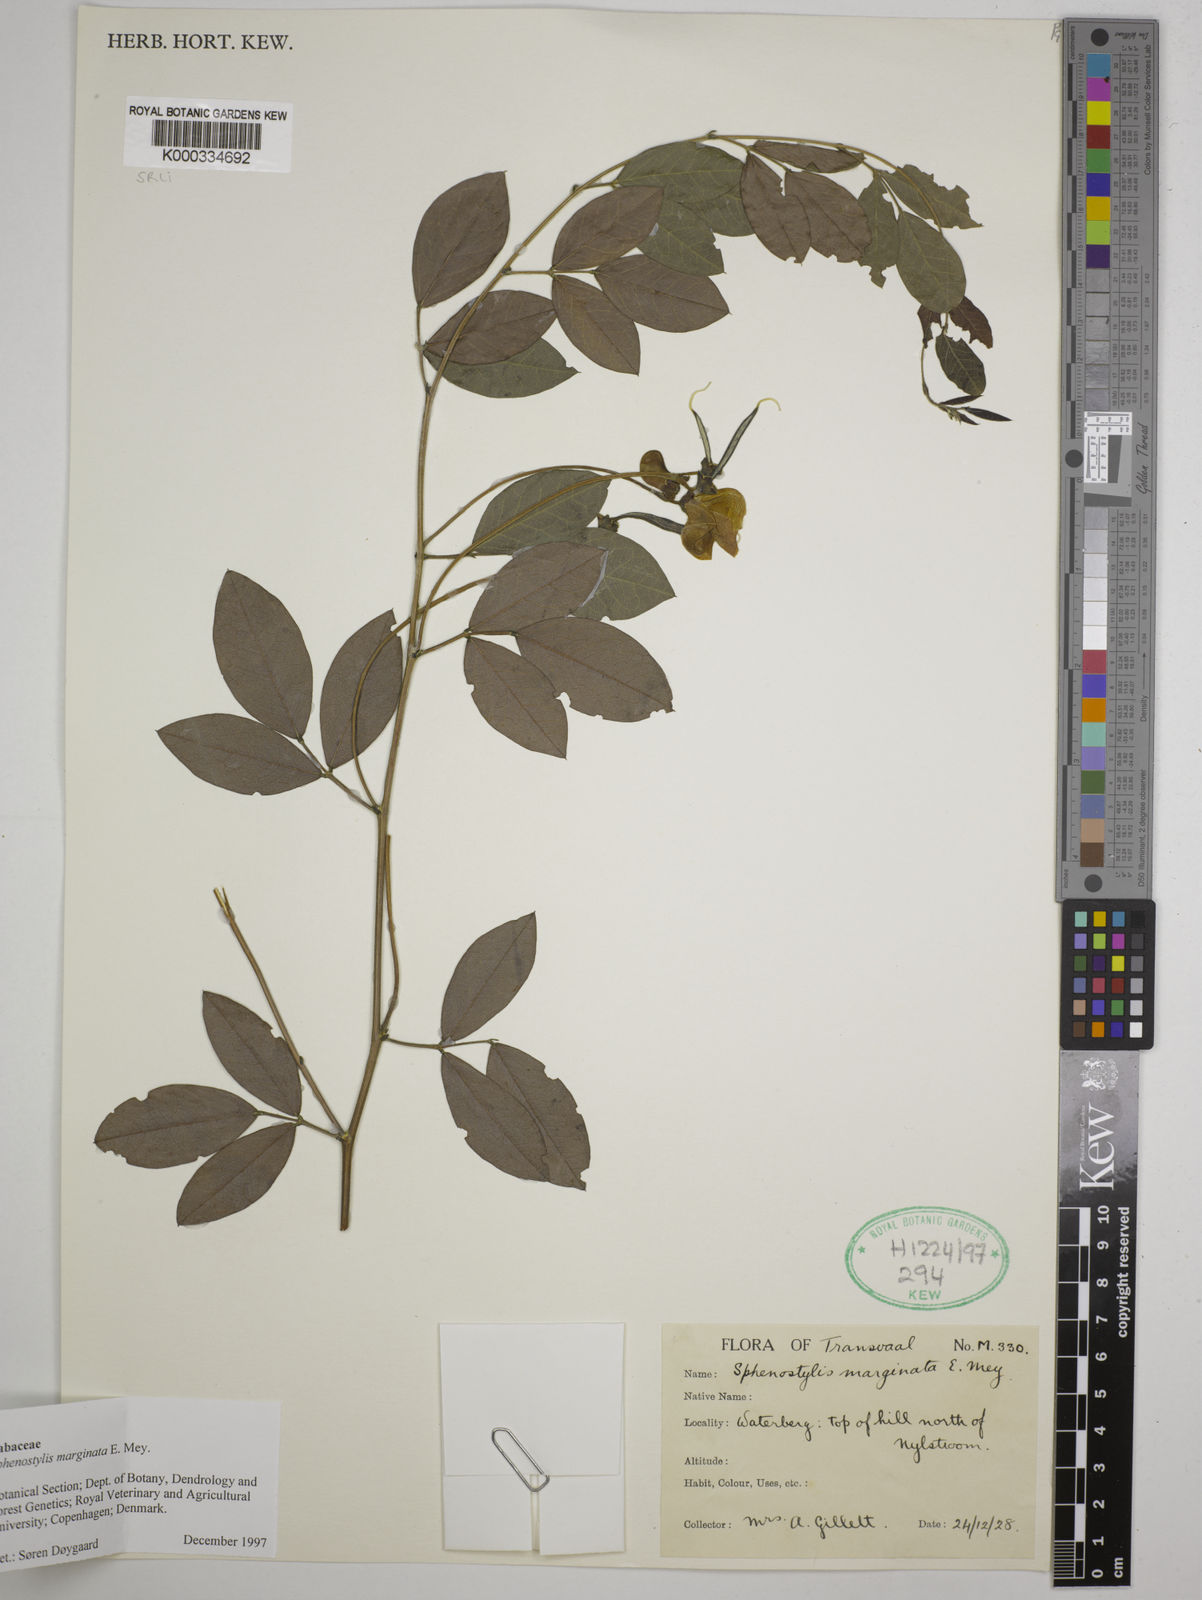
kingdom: Plantae
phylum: Tracheophyta
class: Magnoliopsida
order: Fabales
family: Fabaceae
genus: Sphenostylis
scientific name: Sphenostylis marginata
